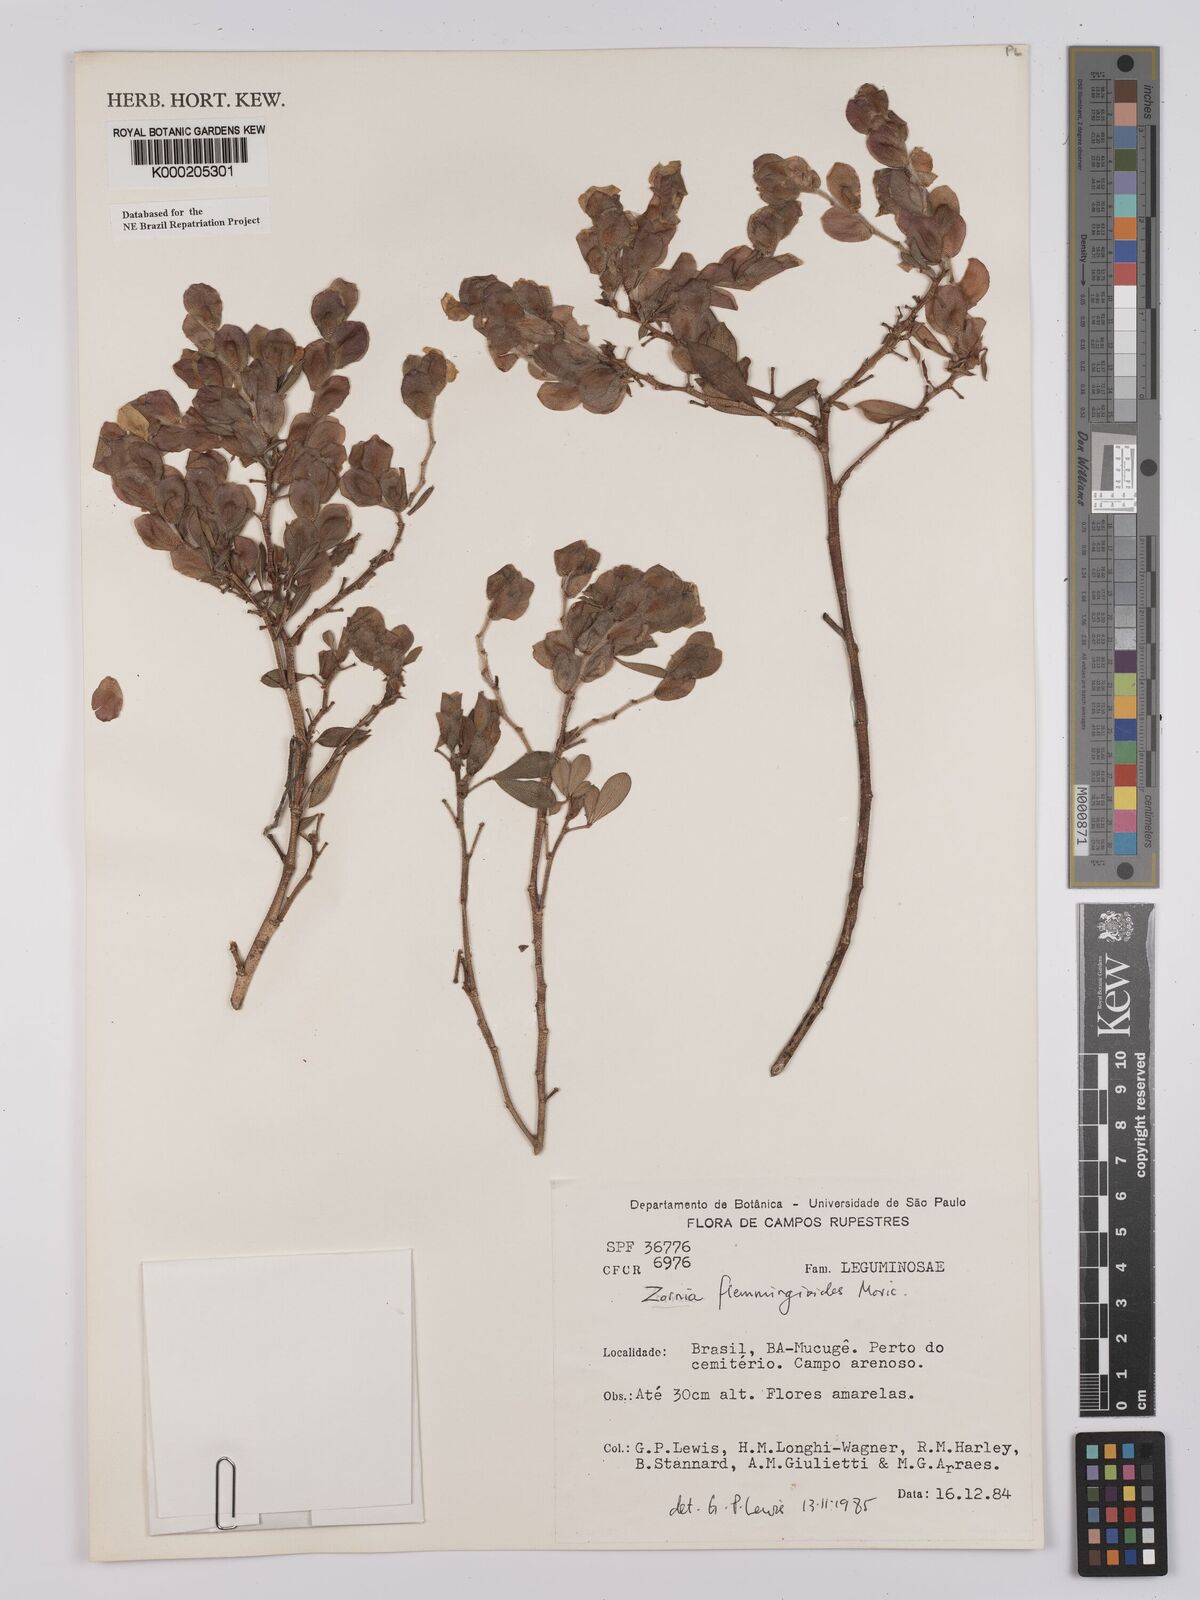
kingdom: Plantae
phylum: Tracheophyta
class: Magnoliopsida
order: Fabales
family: Fabaceae
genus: Zornia
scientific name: Zornia flemmingioides
